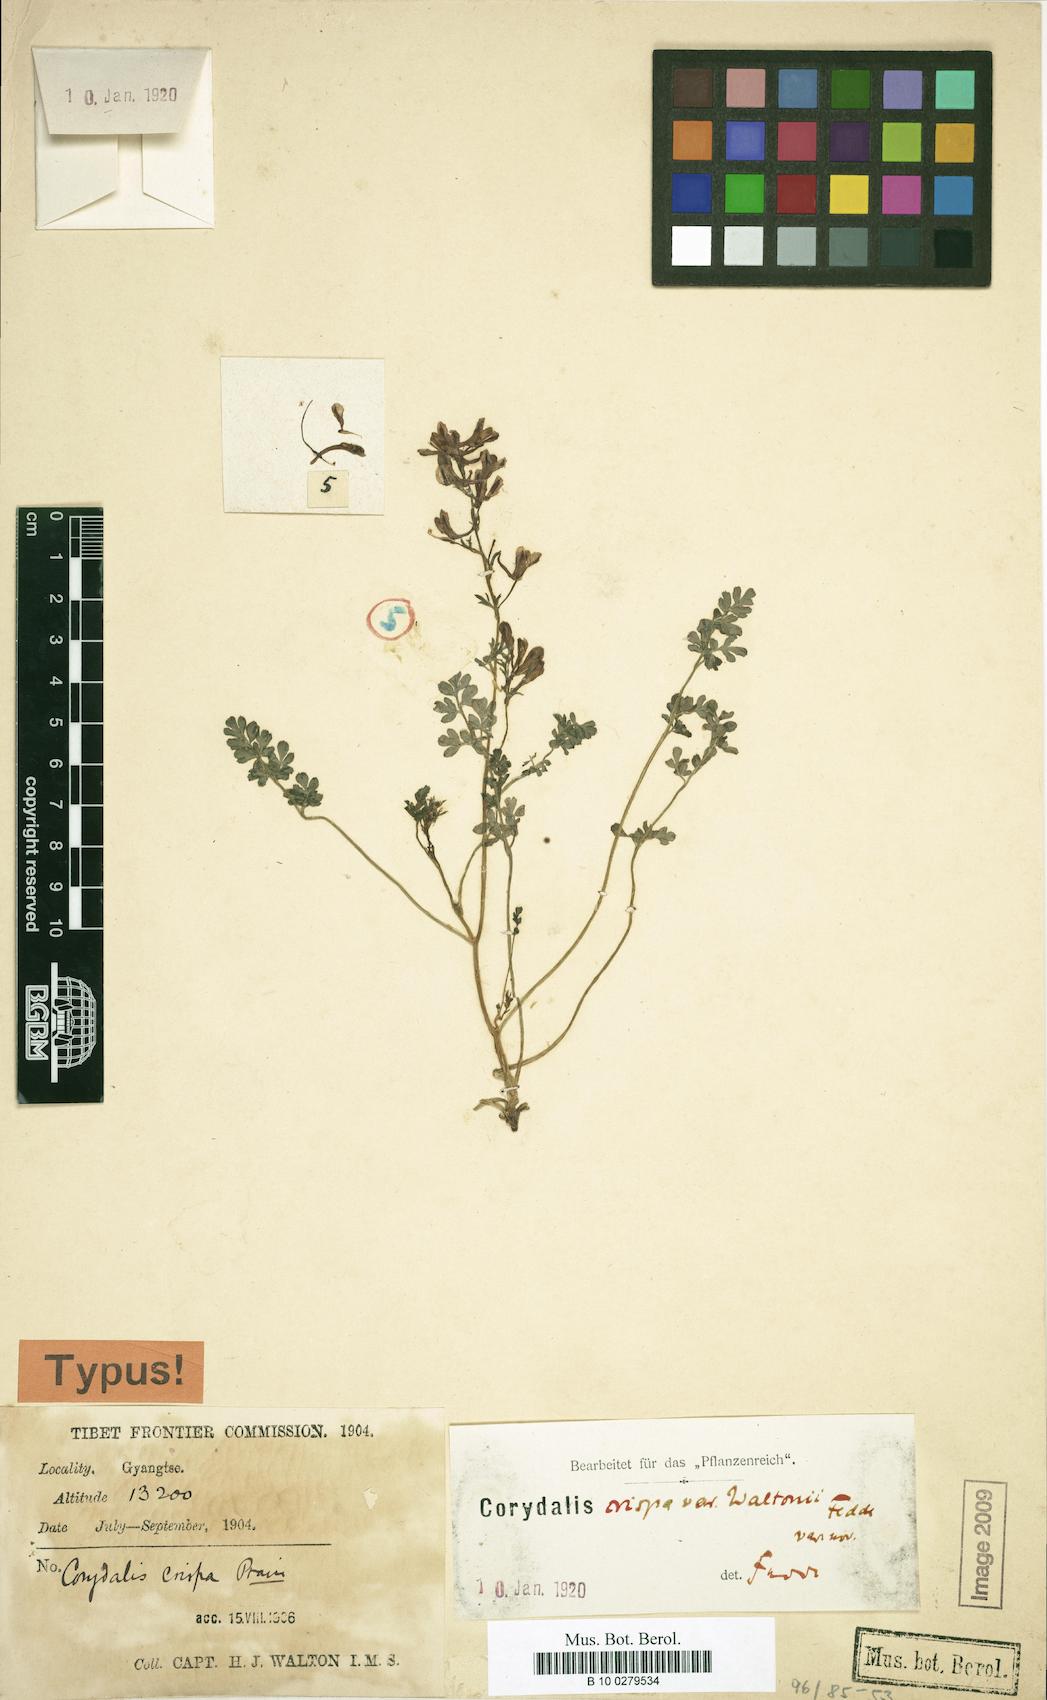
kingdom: Plantae
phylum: Tracheophyta
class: Magnoliopsida
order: Ranunculales
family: Papaveraceae
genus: Corydalis
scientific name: Corydalis crispa
